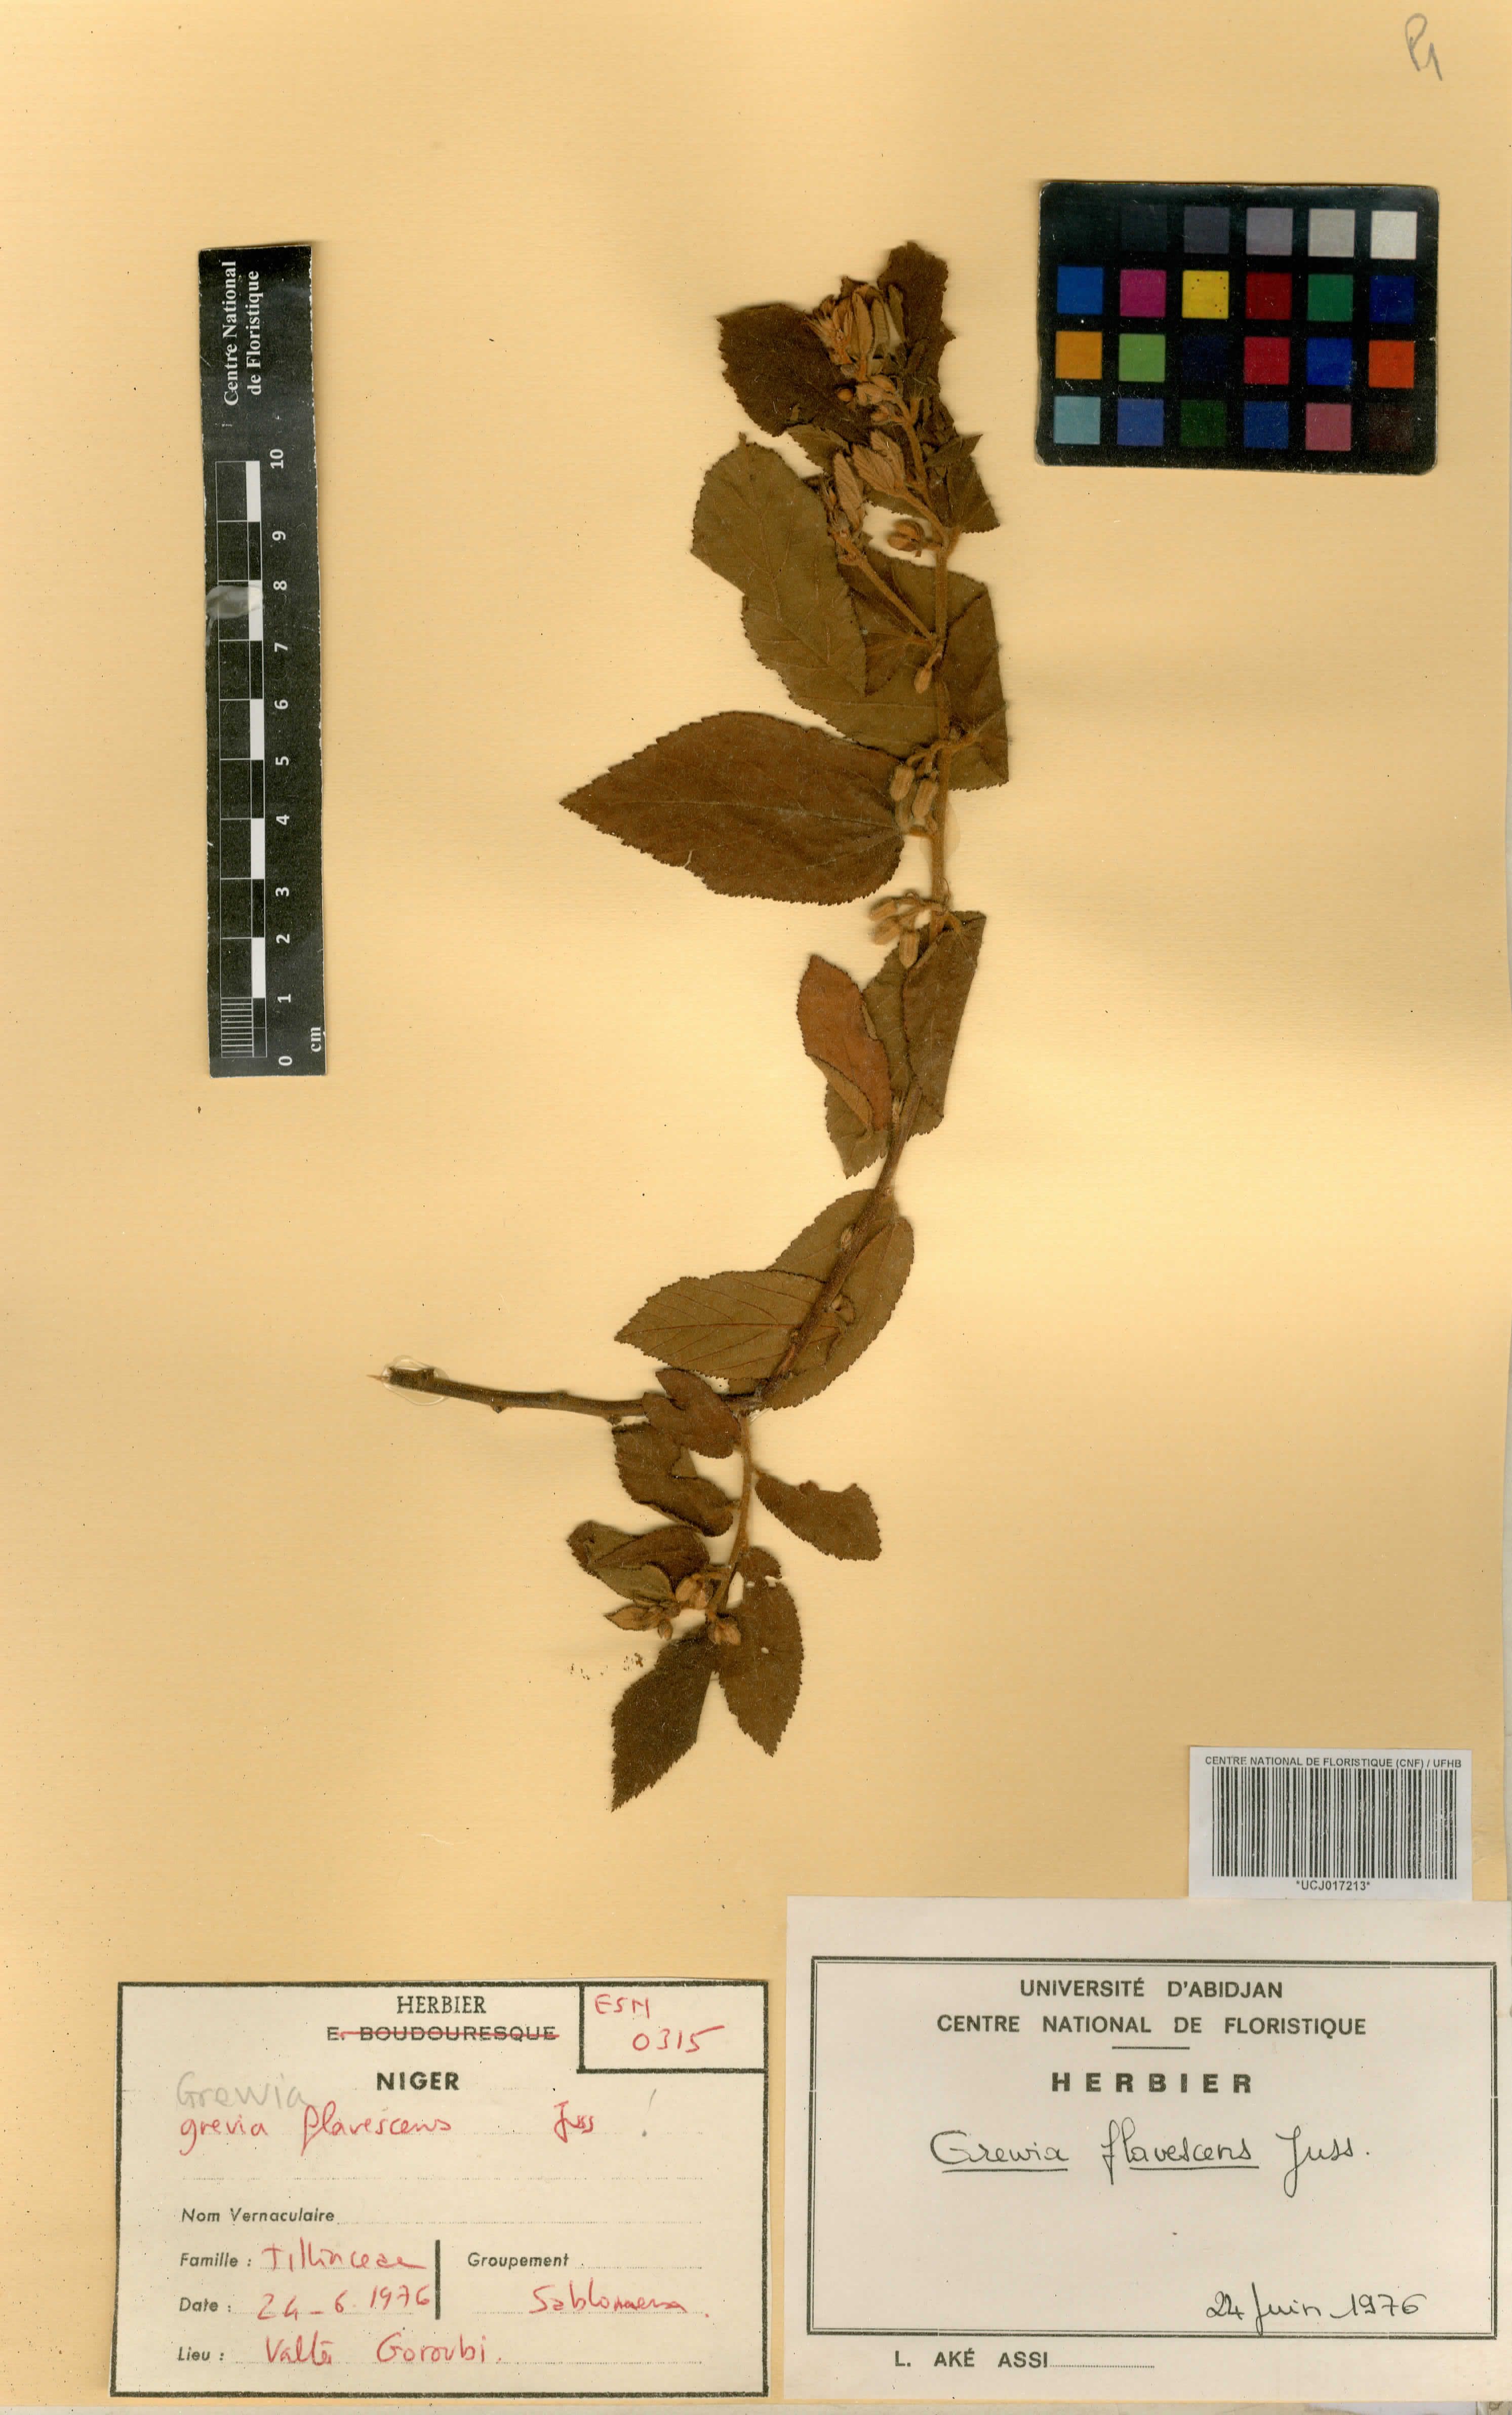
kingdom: Plantae
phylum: Tracheophyta
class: Magnoliopsida
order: Malvales
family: Malvaceae
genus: Grewia
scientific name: Grewia flavescens
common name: Sandpaper raisin
